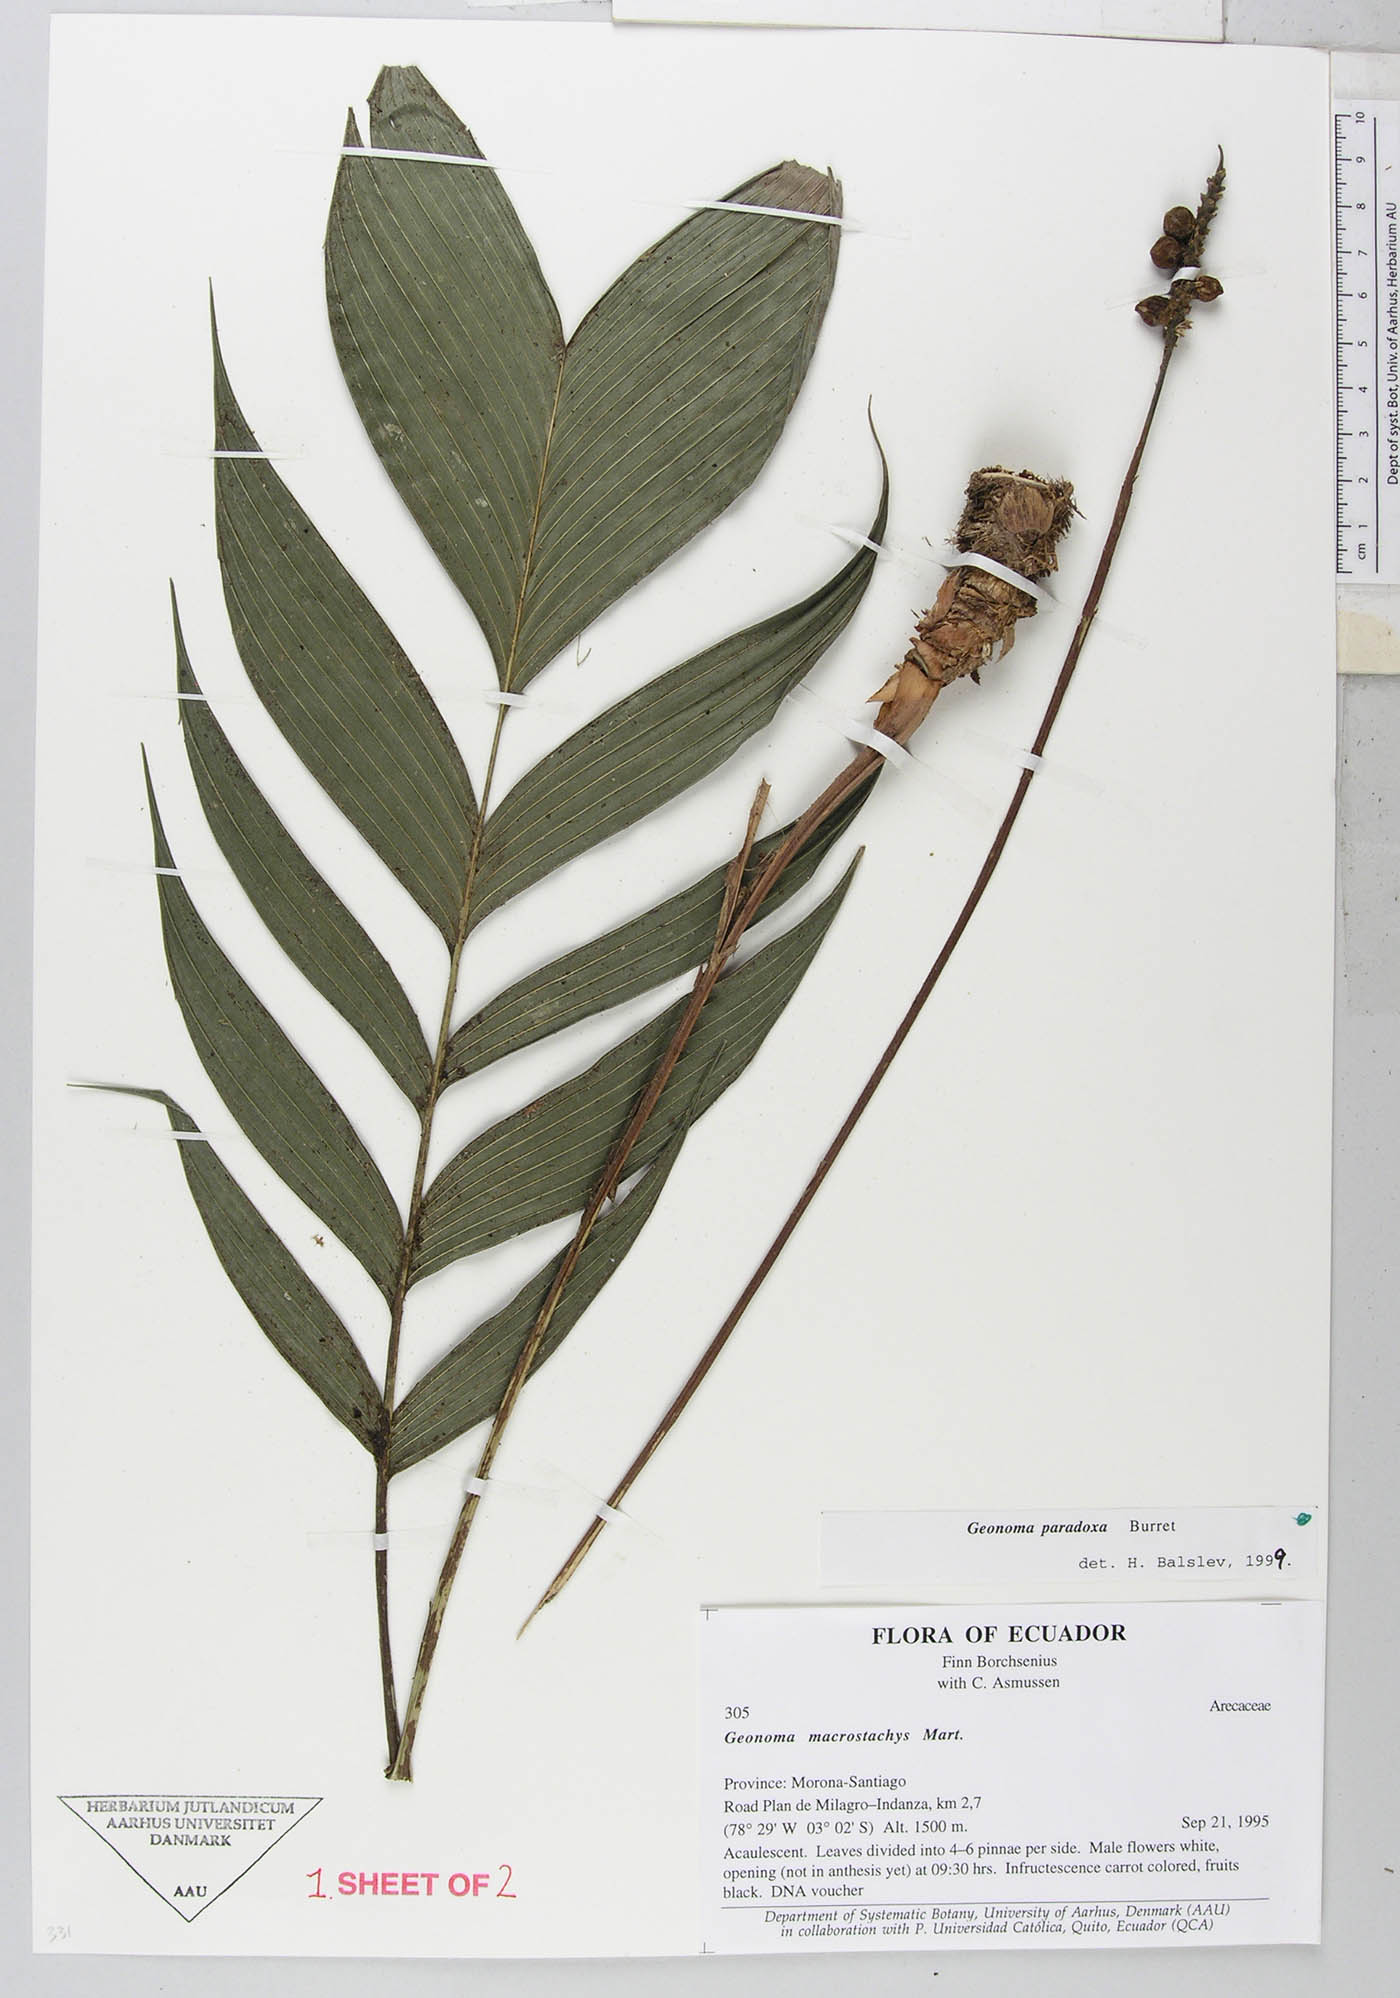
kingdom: Plantae
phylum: Tracheophyta
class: Liliopsida
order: Arecales
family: Arecaceae
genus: Geonoma
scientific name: Geonoma macrostachys
